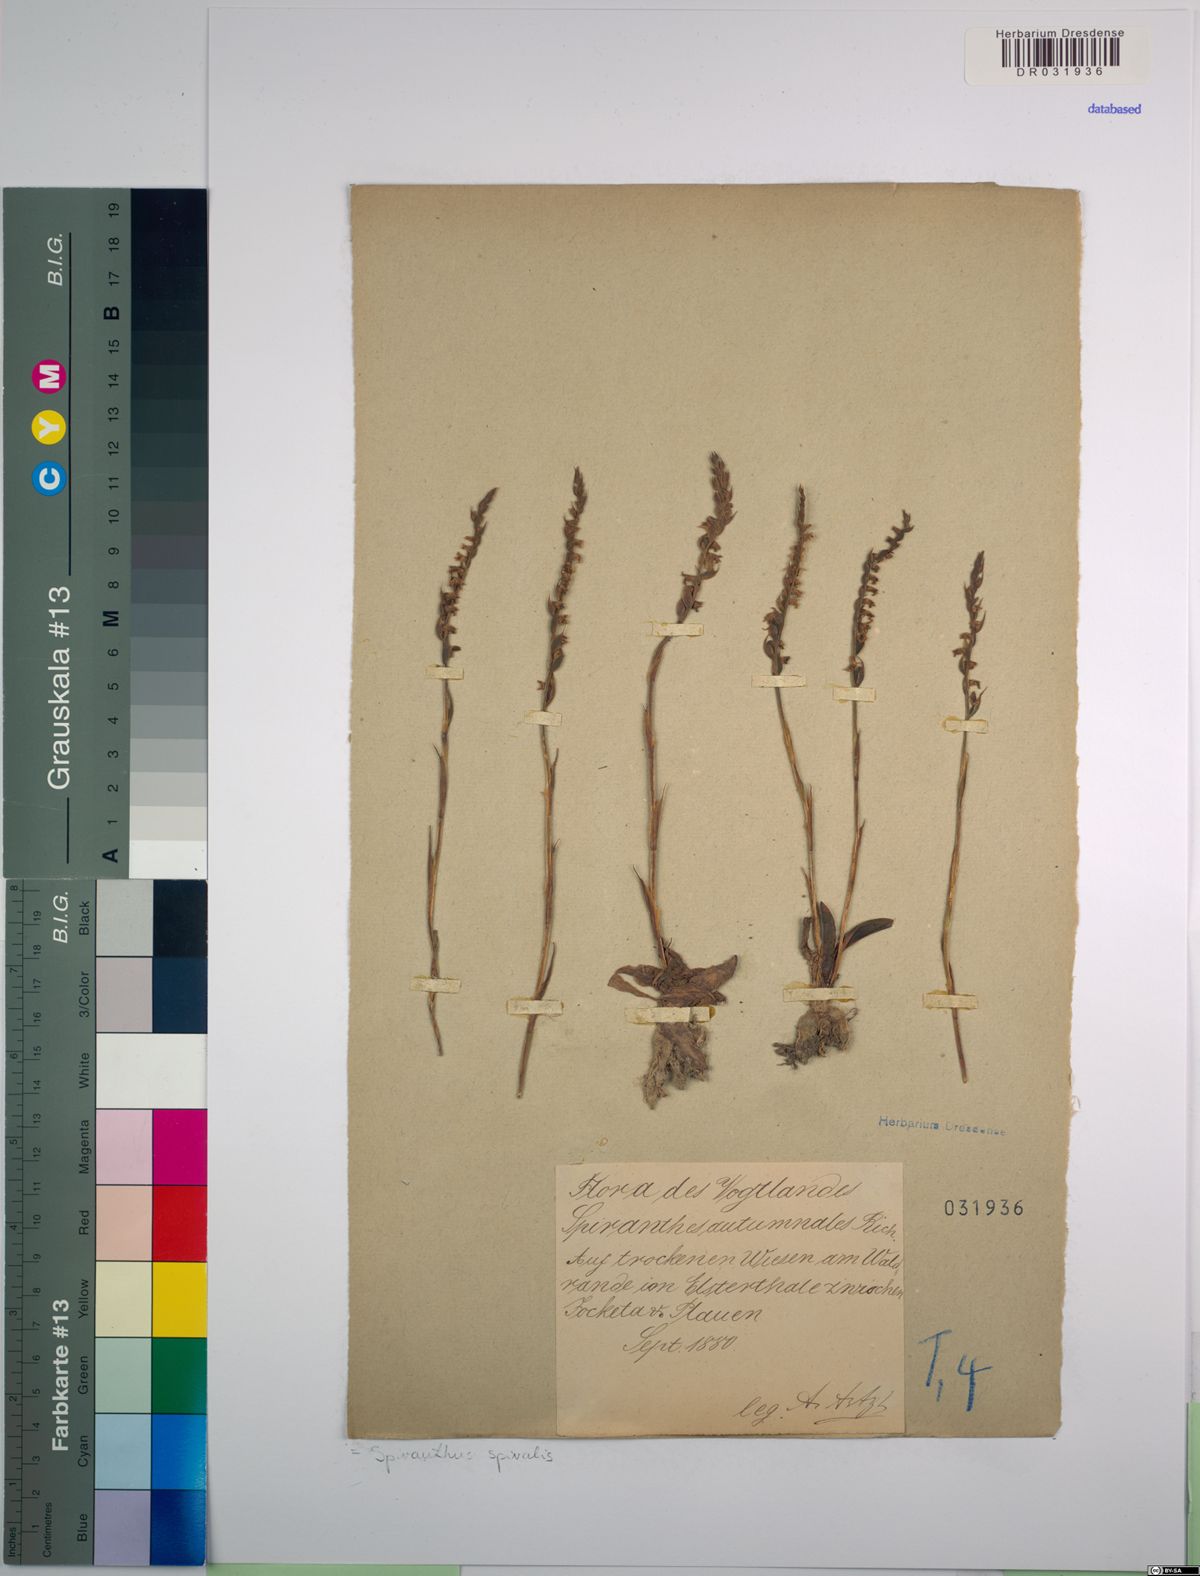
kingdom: Plantae
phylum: Tracheophyta
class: Liliopsida
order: Asparagales
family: Orchidaceae
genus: Spiranthes
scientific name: Spiranthes spiralis
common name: Autumn lady's-tresses
